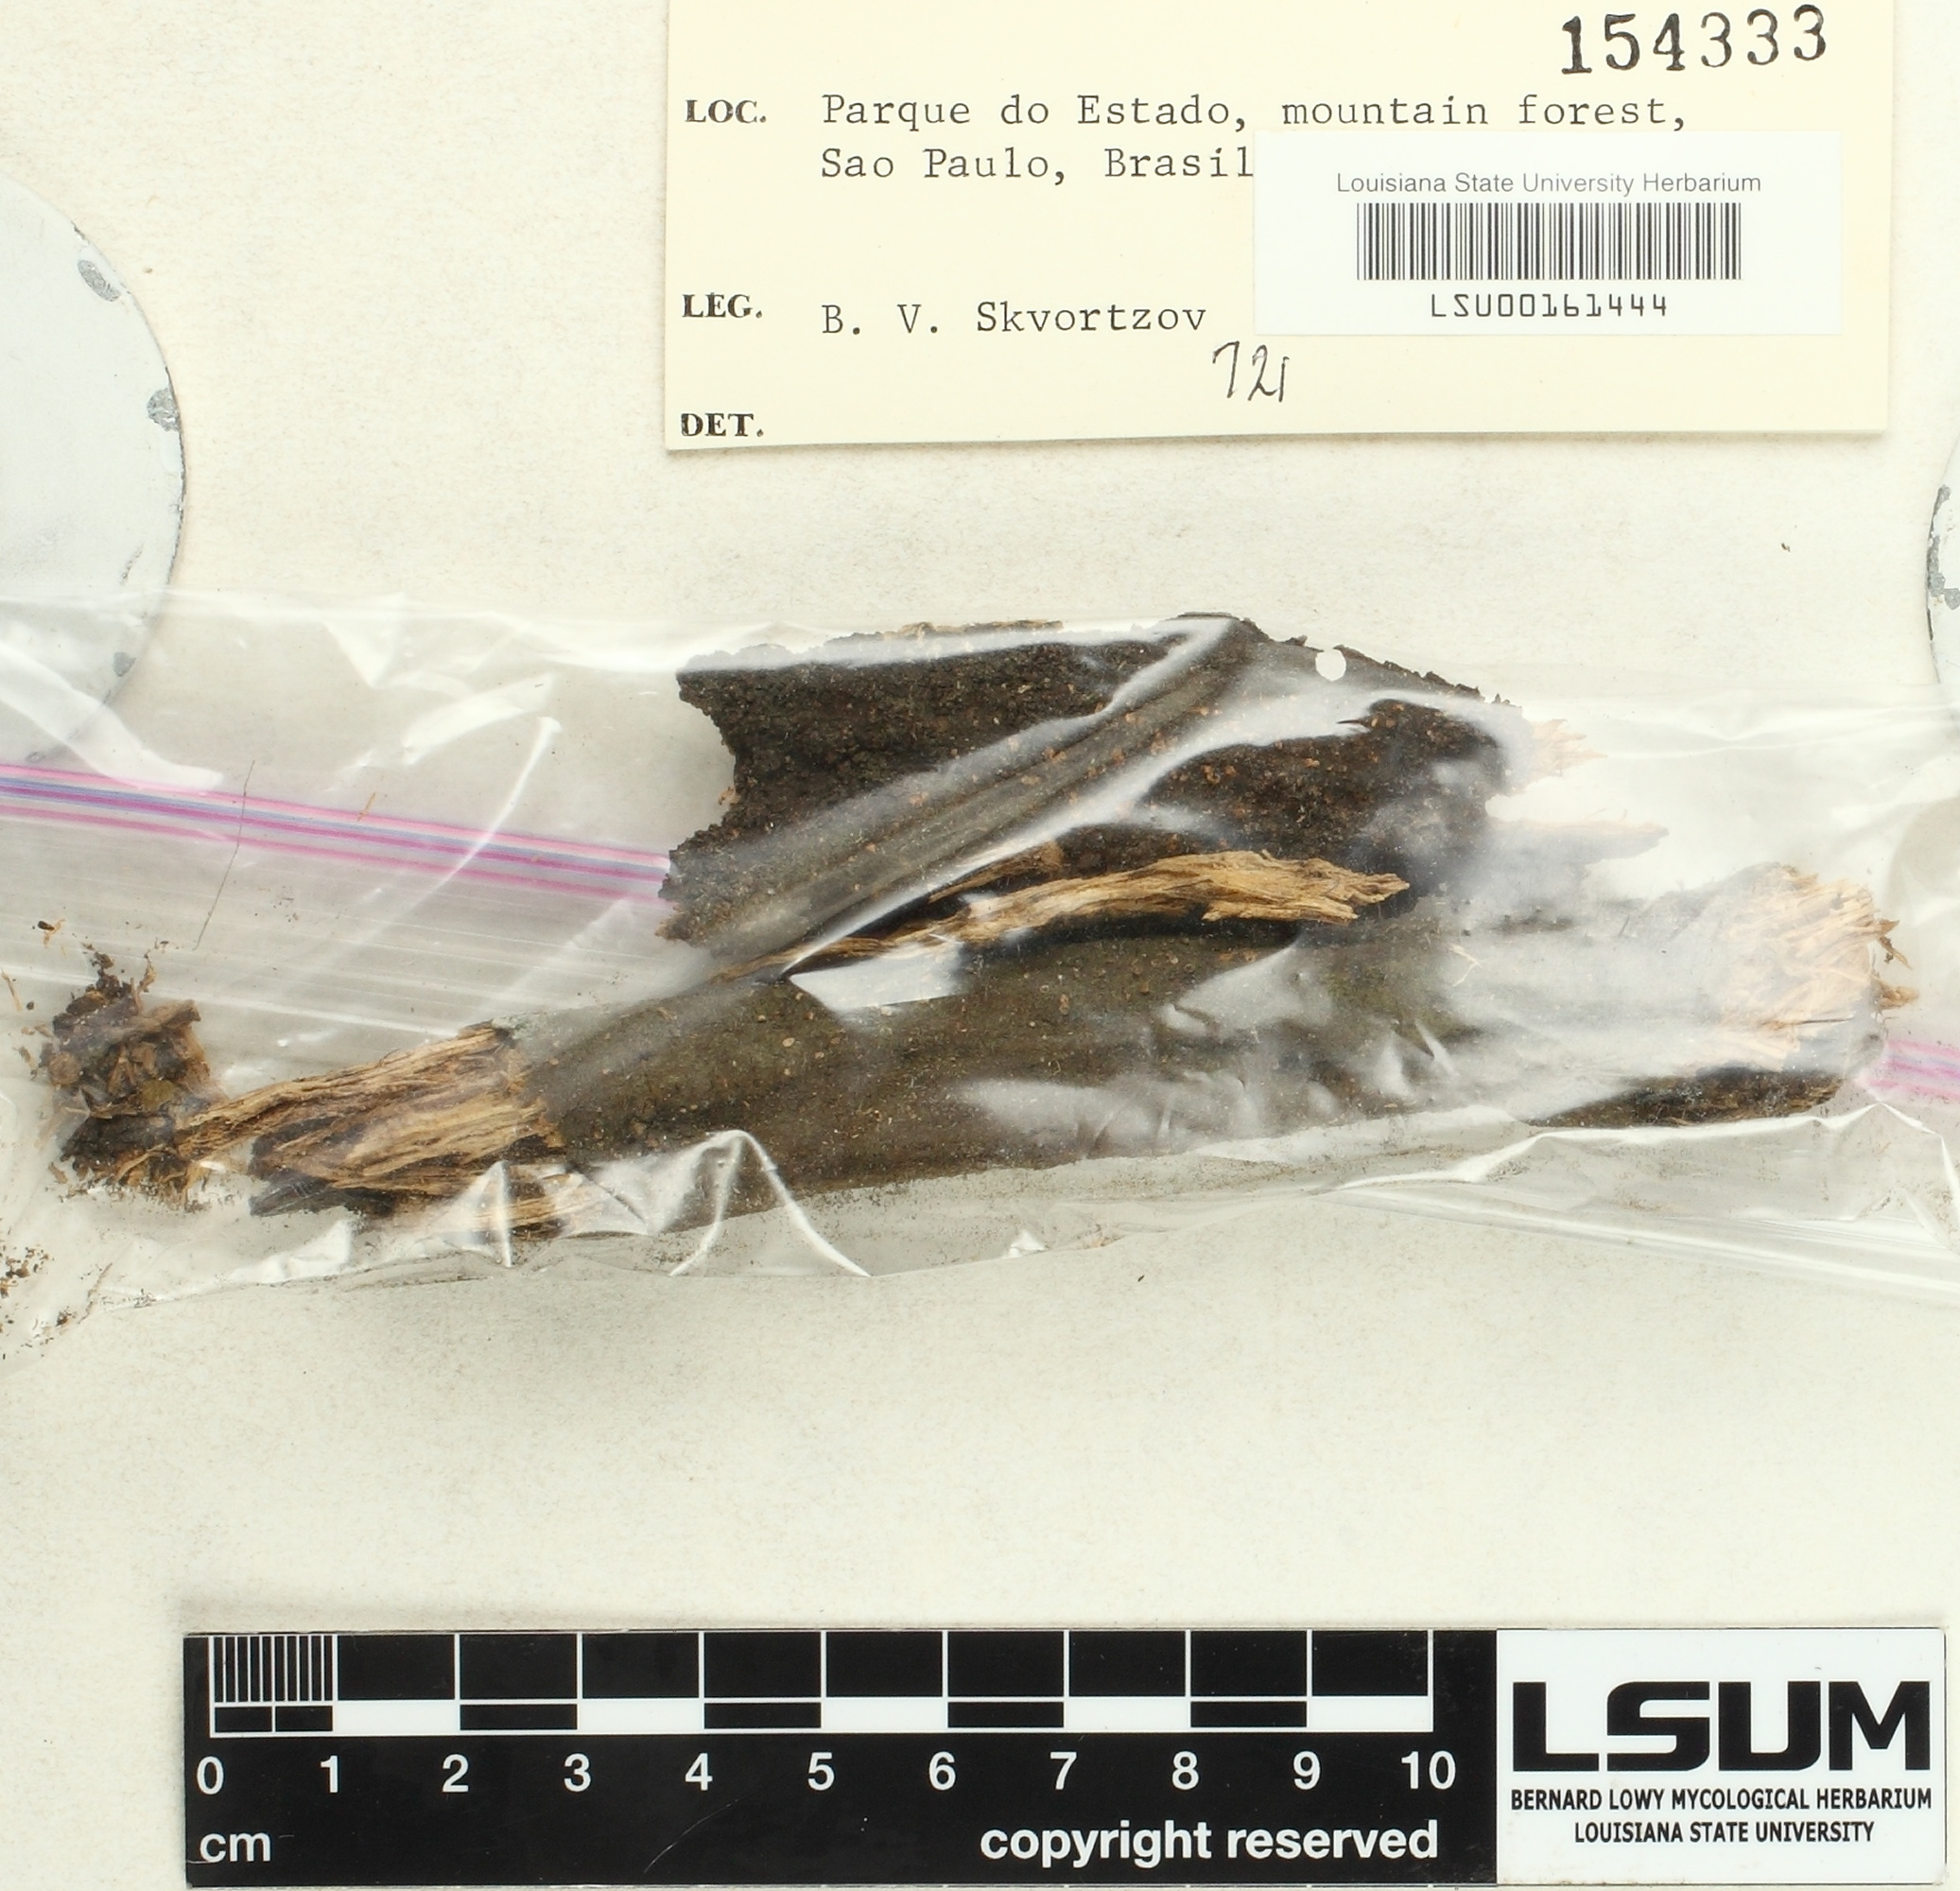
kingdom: Fungi
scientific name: Fungi
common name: Fungi
